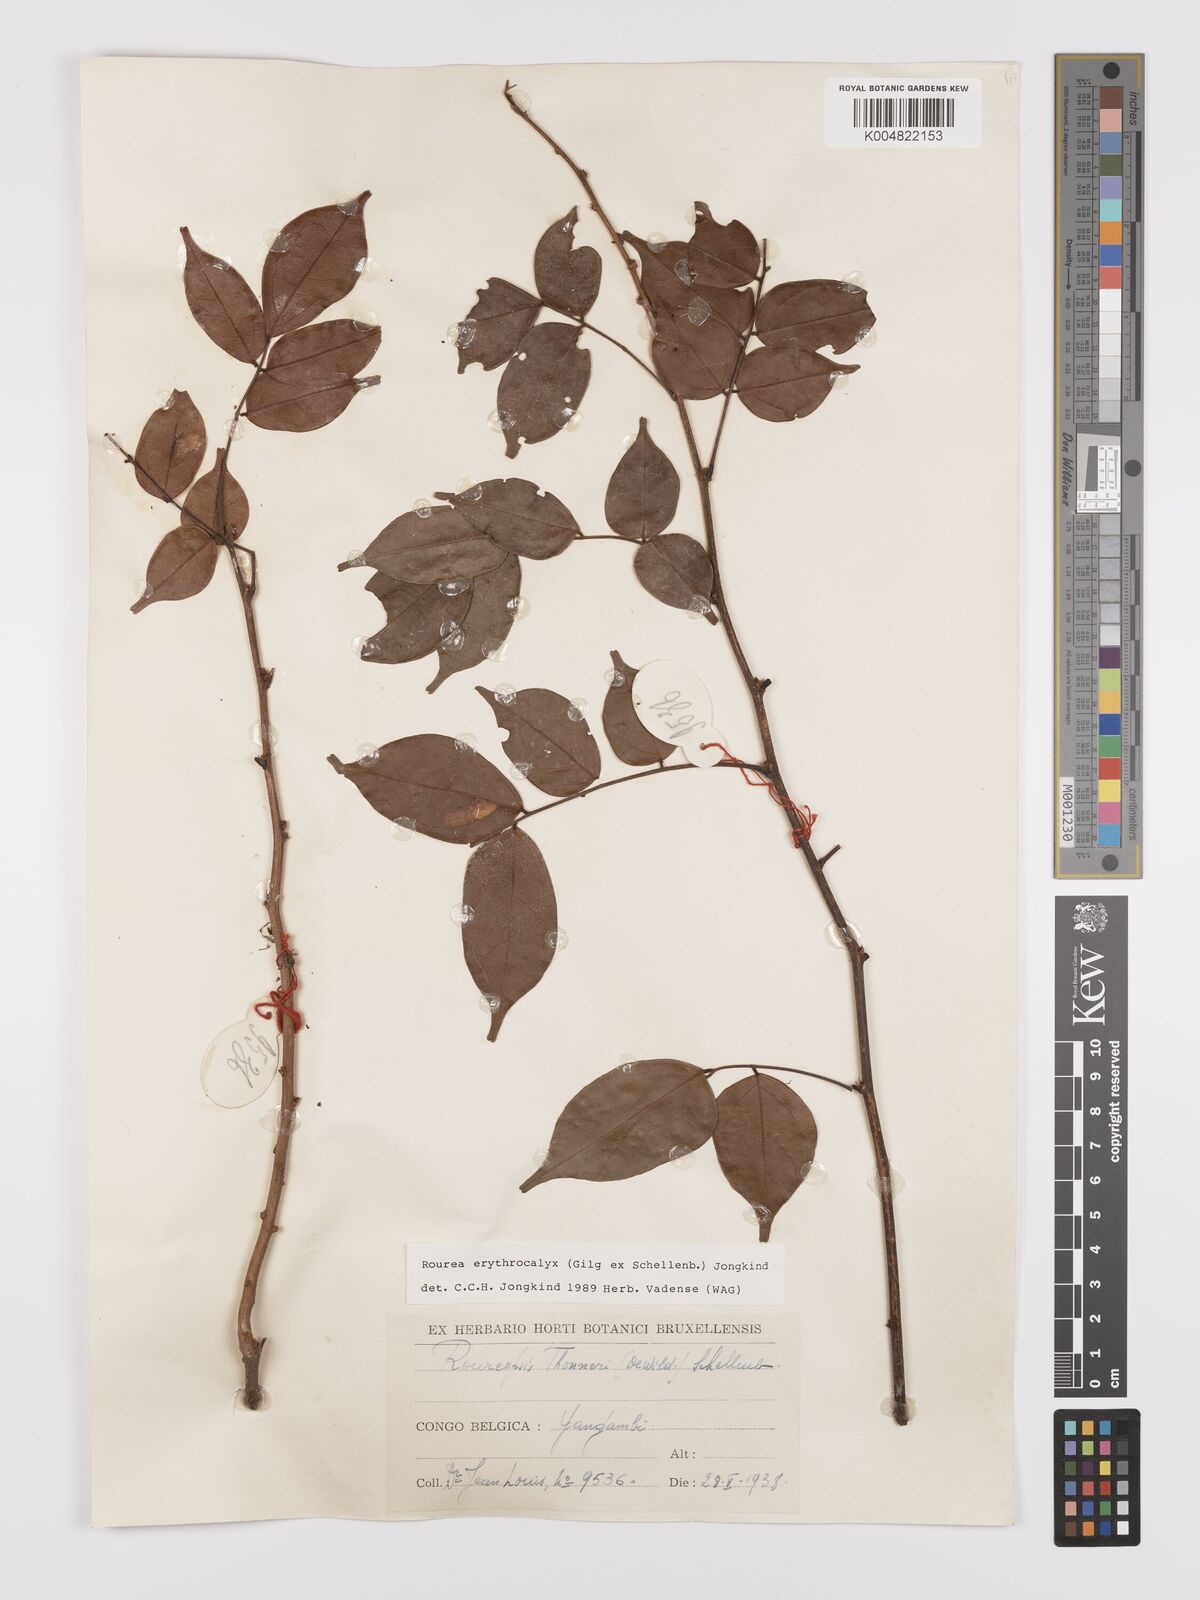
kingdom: Plantae
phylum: Tracheophyta
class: Magnoliopsida
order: Oxalidales
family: Connaraceae
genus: Rourea
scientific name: Rourea erythrocalyx
